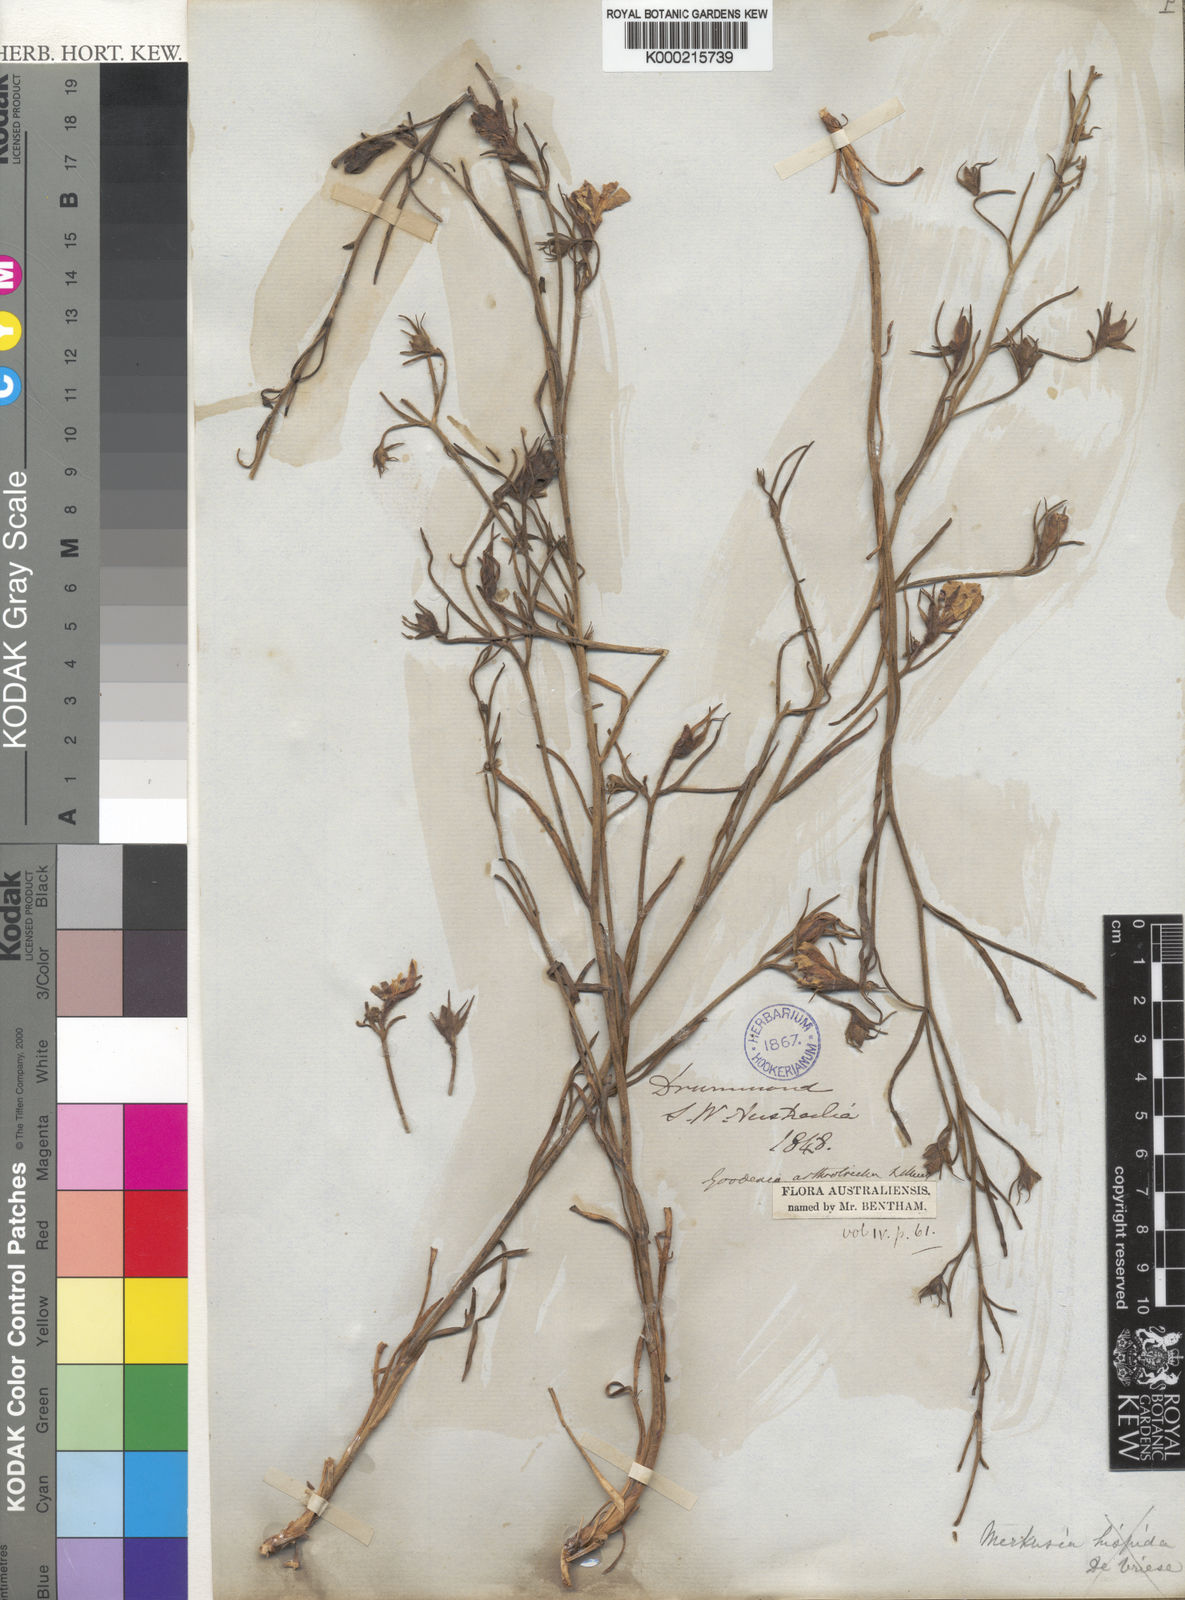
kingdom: Plantae
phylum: Tracheophyta
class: Magnoliopsida
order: Asterales
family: Goodeniaceae
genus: Goodenia
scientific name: Goodenia arthrotricha
